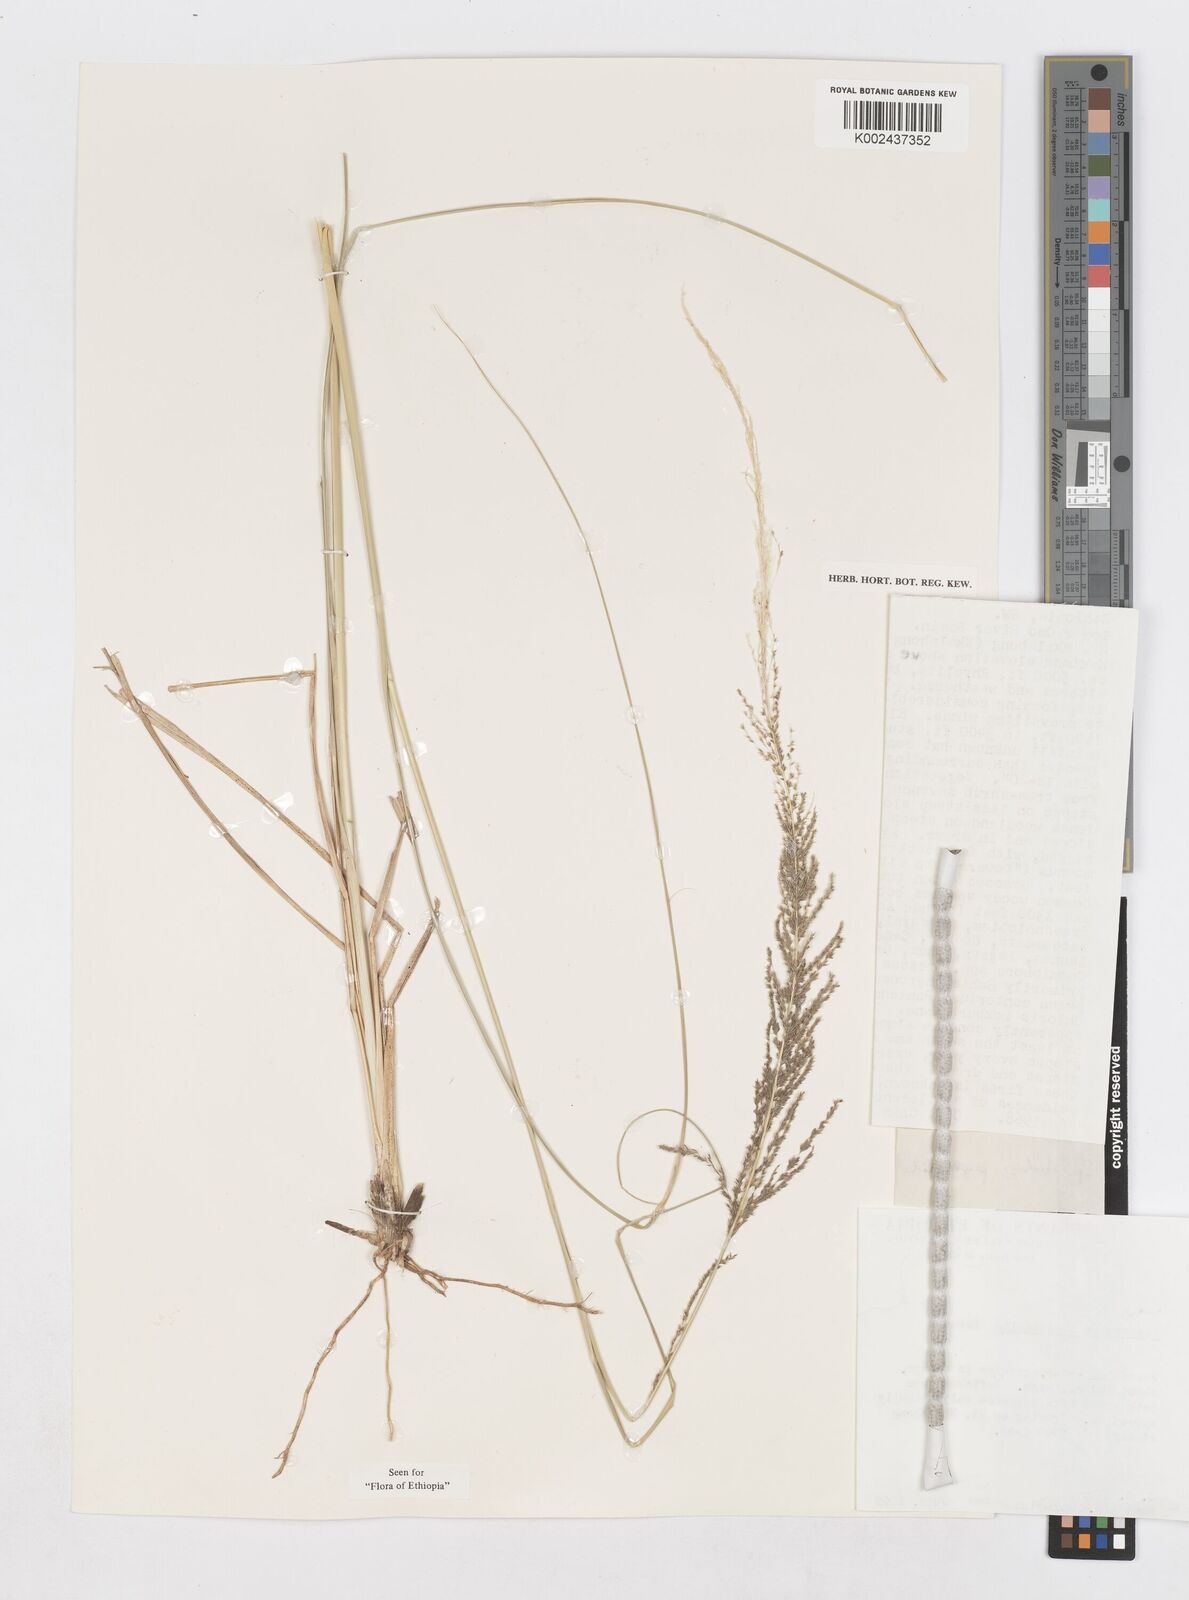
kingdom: Plantae
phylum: Tracheophyta
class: Liliopsida
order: Poales
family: Poaceae
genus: Sporobolus
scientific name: Sporobolus pyramidalis
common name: West indian dropseed
